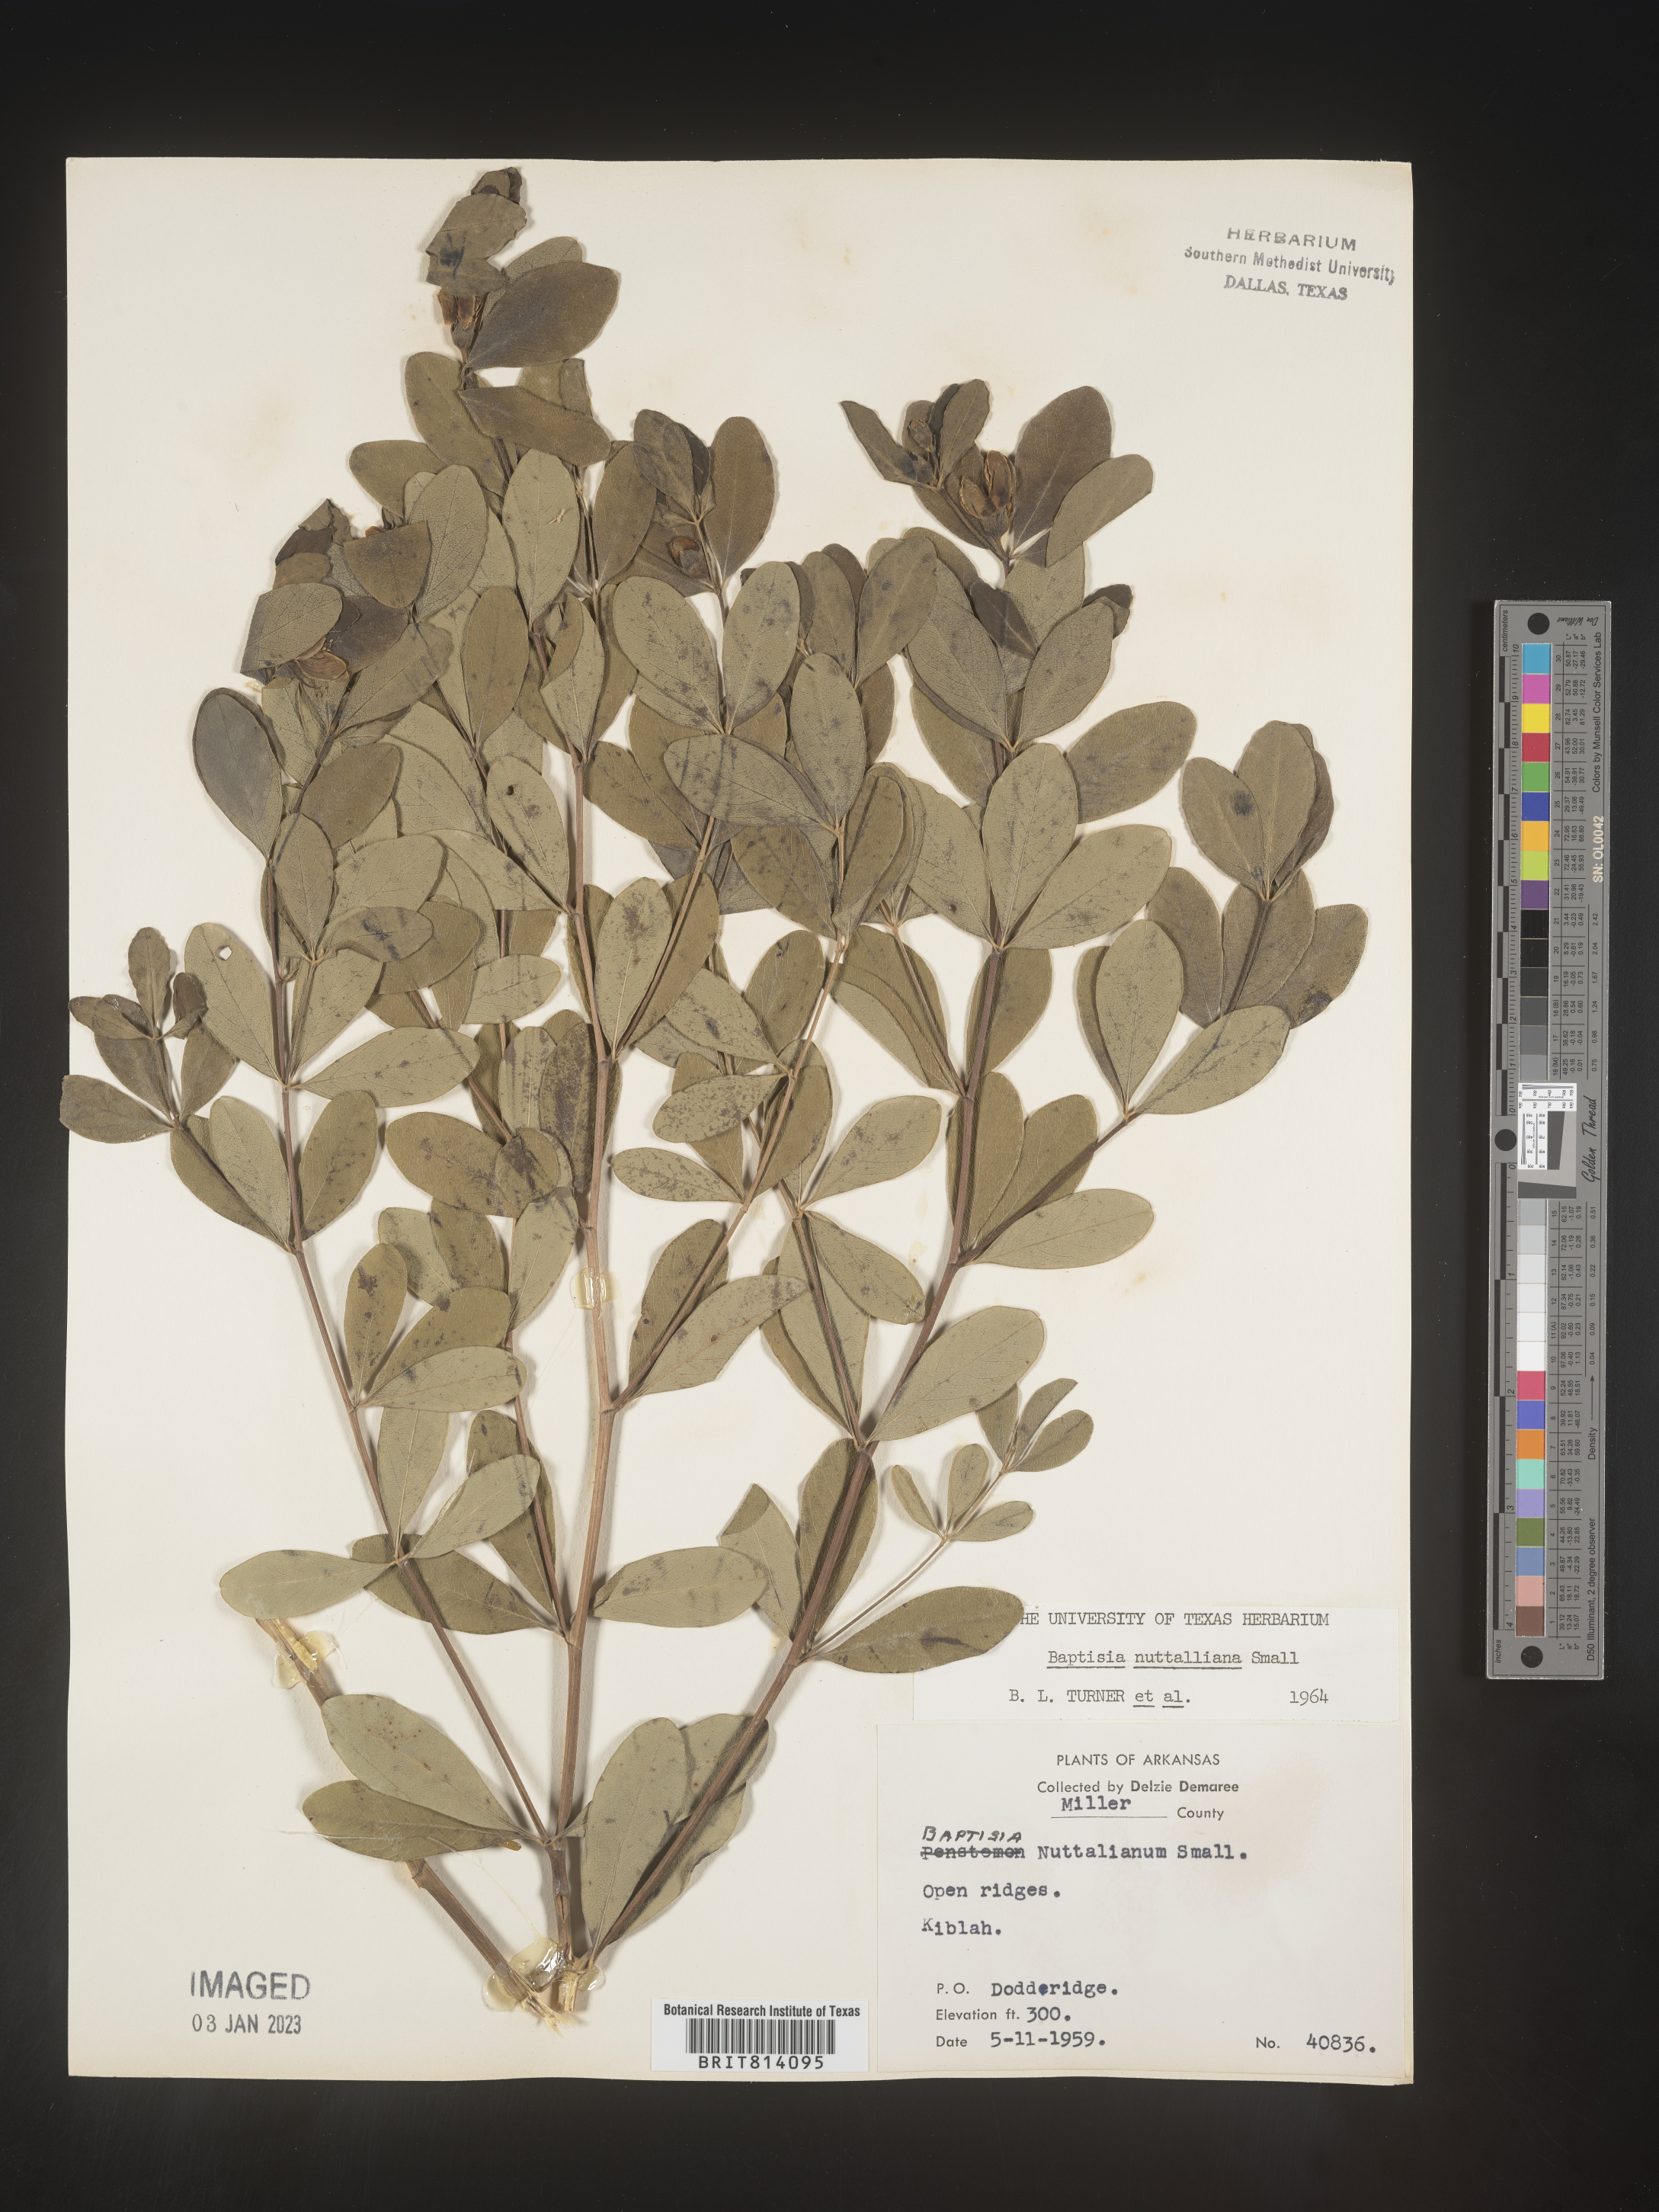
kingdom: Plantae
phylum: Tracheophyta
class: Magnoliopsida
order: Fabales
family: Fabaceae
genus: Baptisia
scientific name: Baptisia nuttalliana
